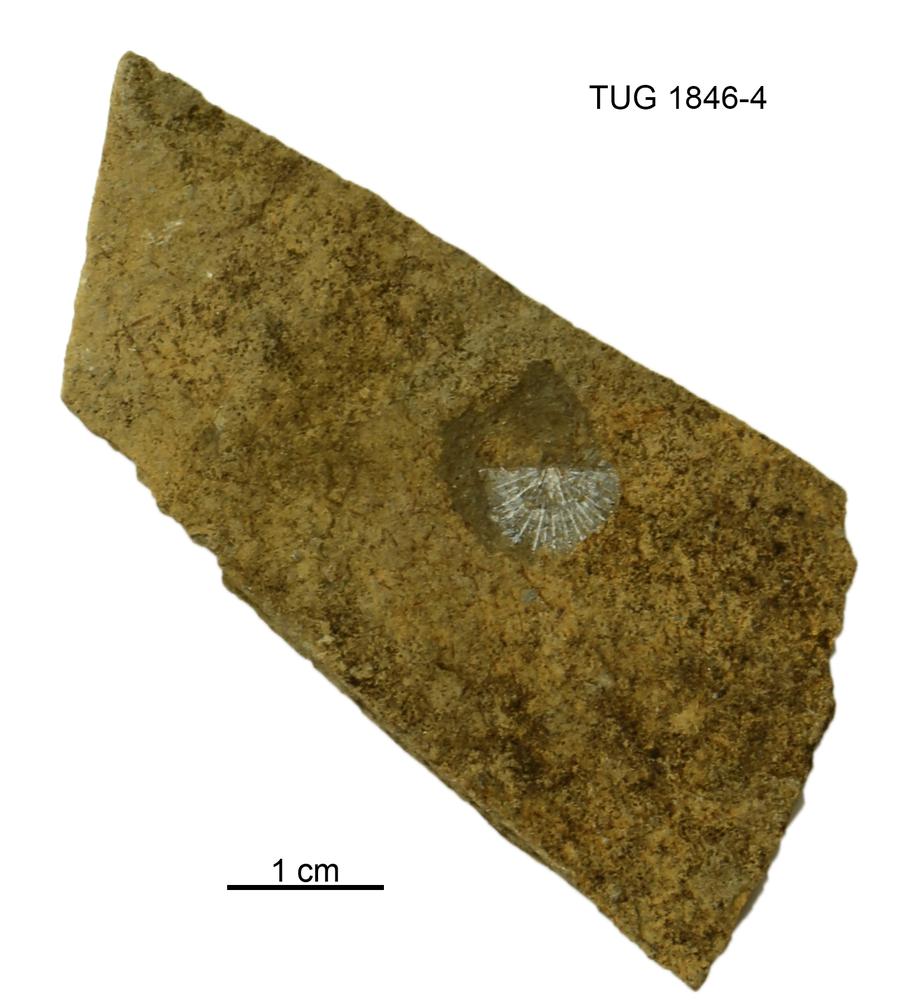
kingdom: Animalia
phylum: Brachiopoda
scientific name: Brachiopoda
